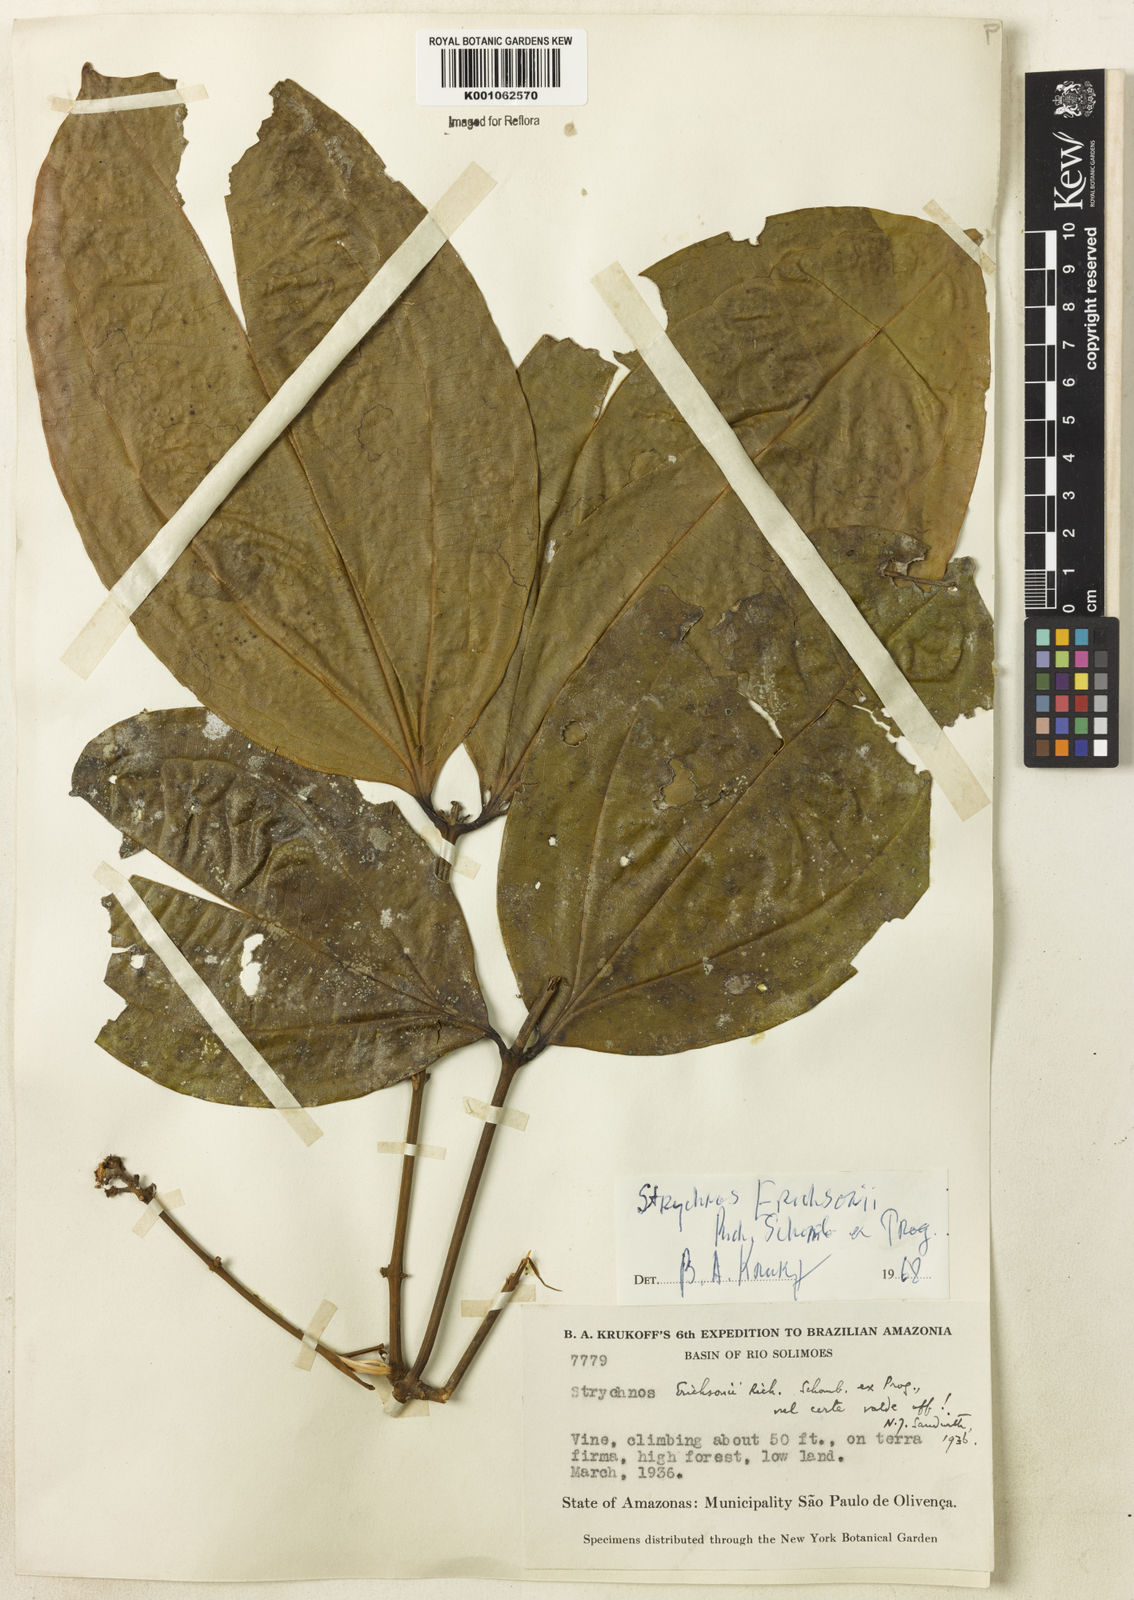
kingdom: Plantae
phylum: Tracheophyta
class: Magnoliopsida
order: Gentianales
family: Loganiaceae
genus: Strychnos
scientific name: Strychnos erichsonii
